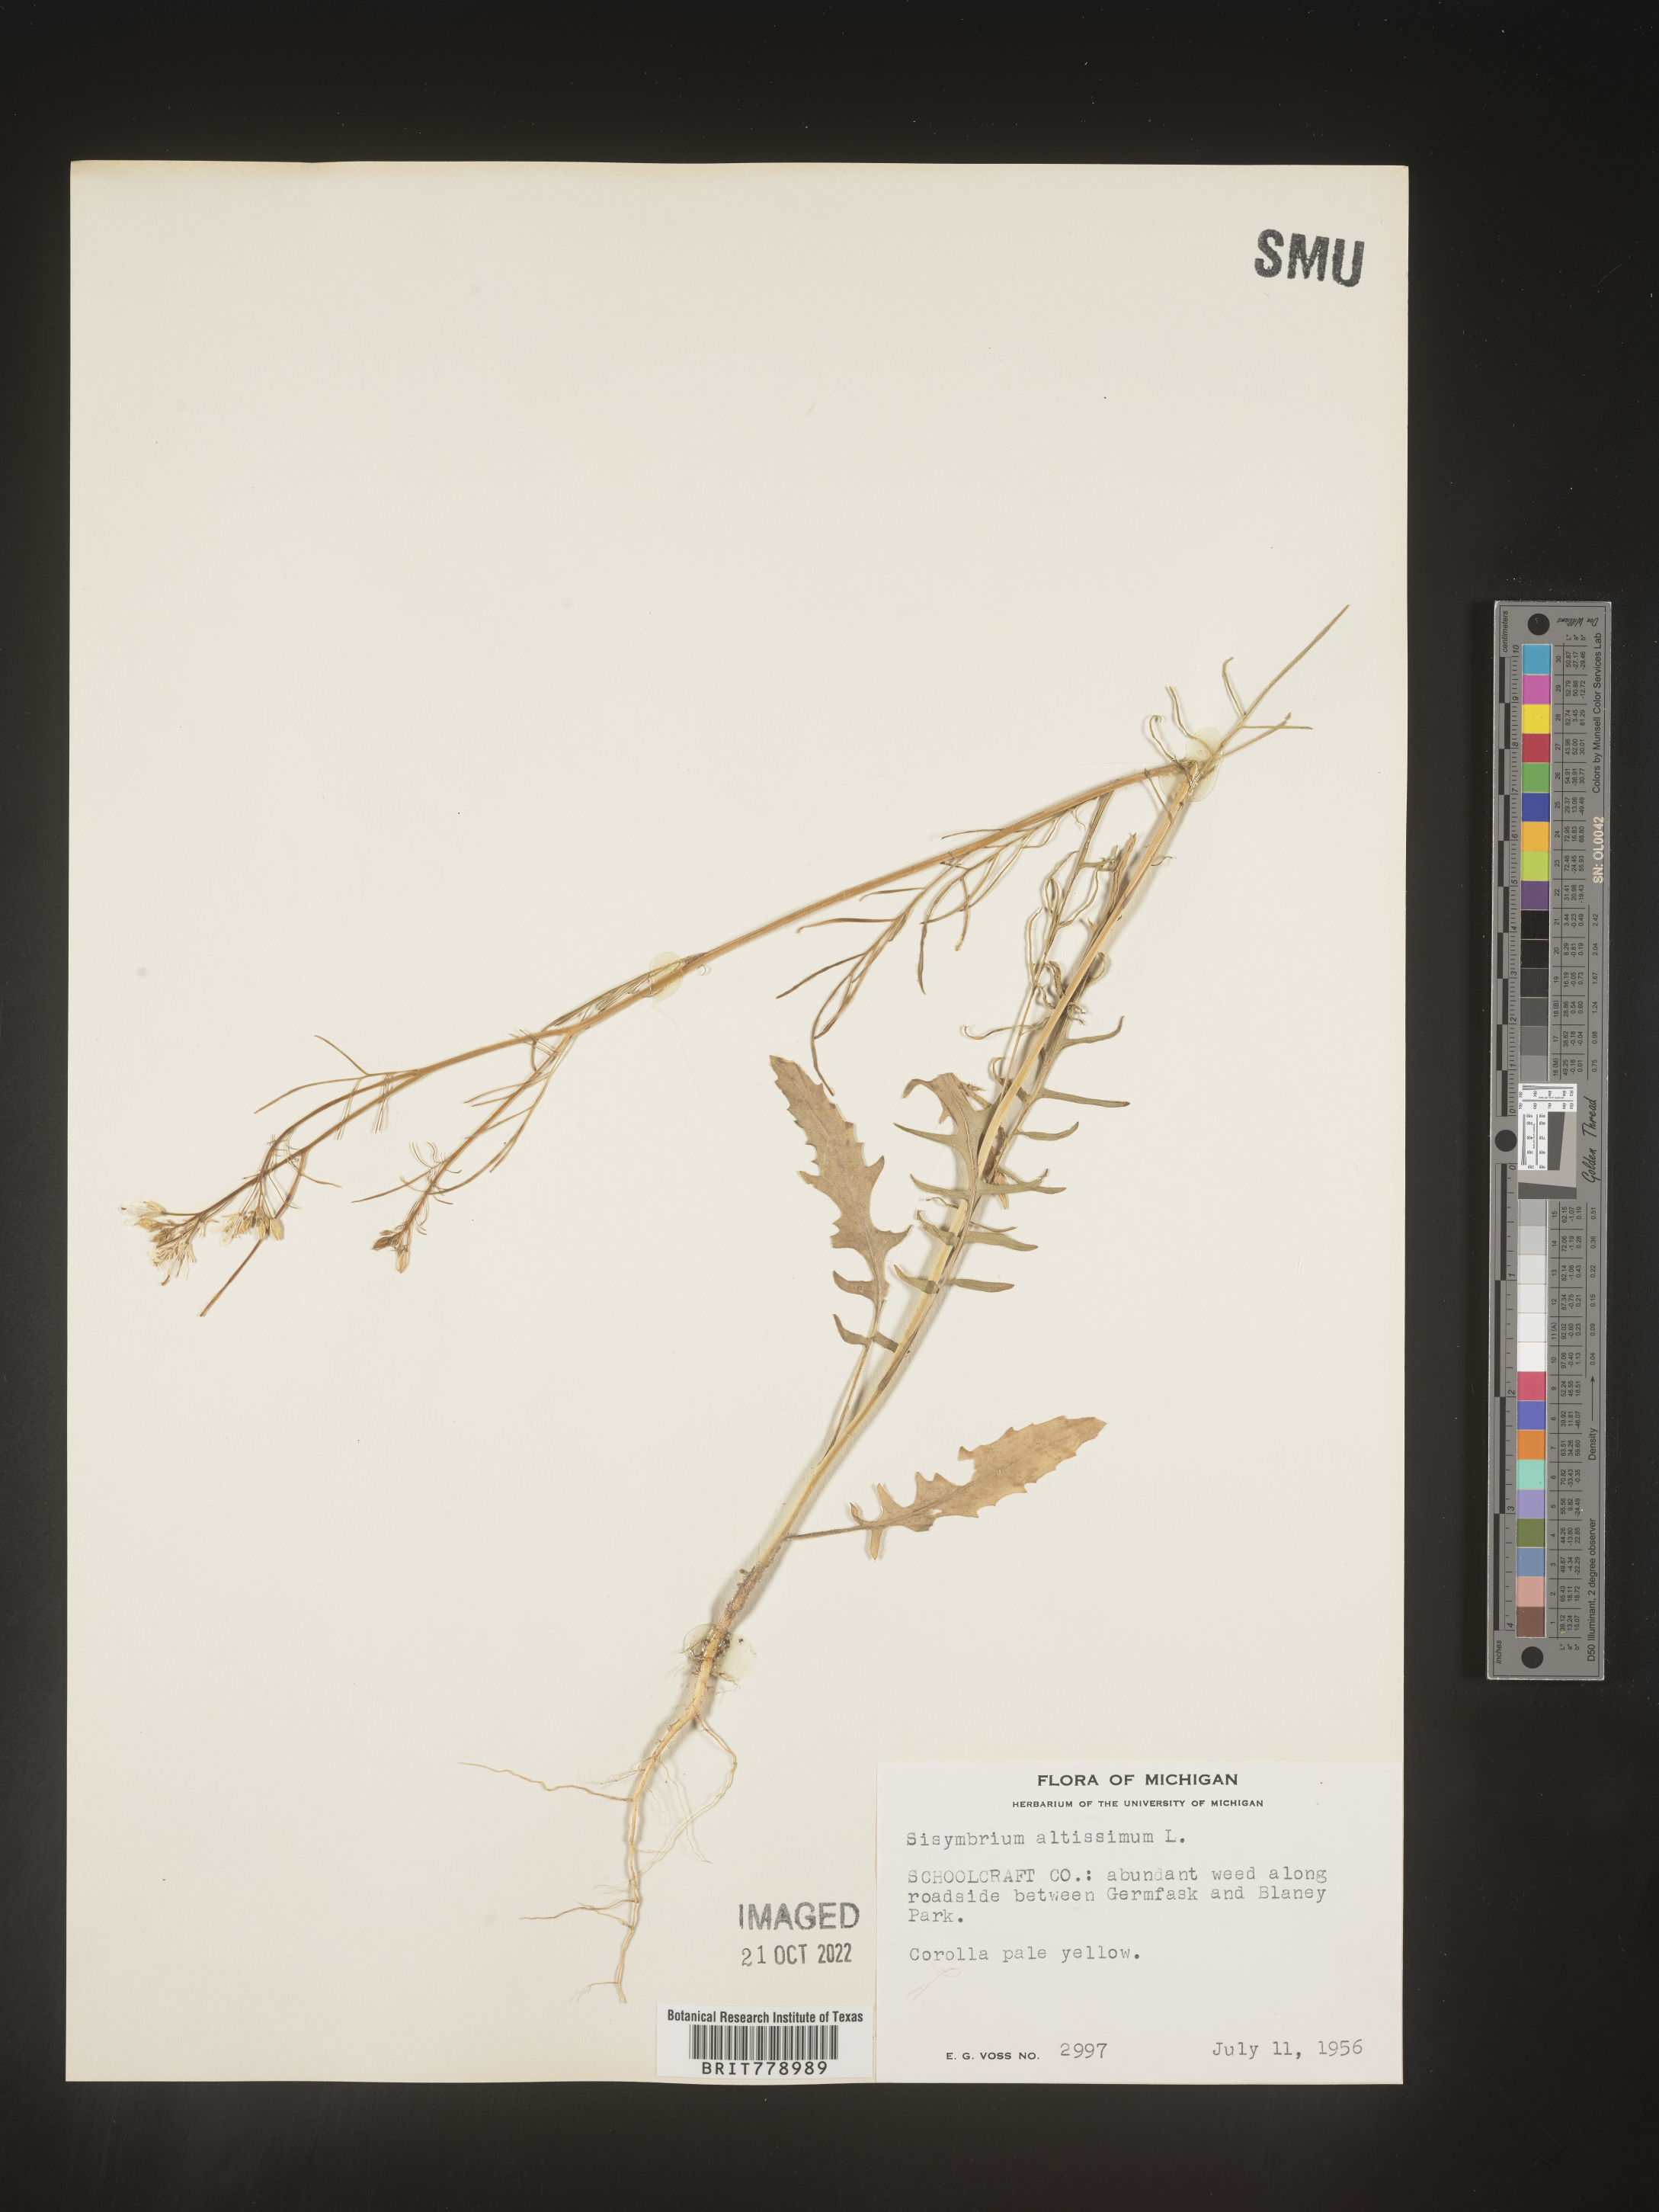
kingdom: Plantae
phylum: Tracheophyta
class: Magnoliopsida
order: Brassicales
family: Brassicaceae
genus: Sisymbrium
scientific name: Sisymbrium altissimum
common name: Tall rocket
